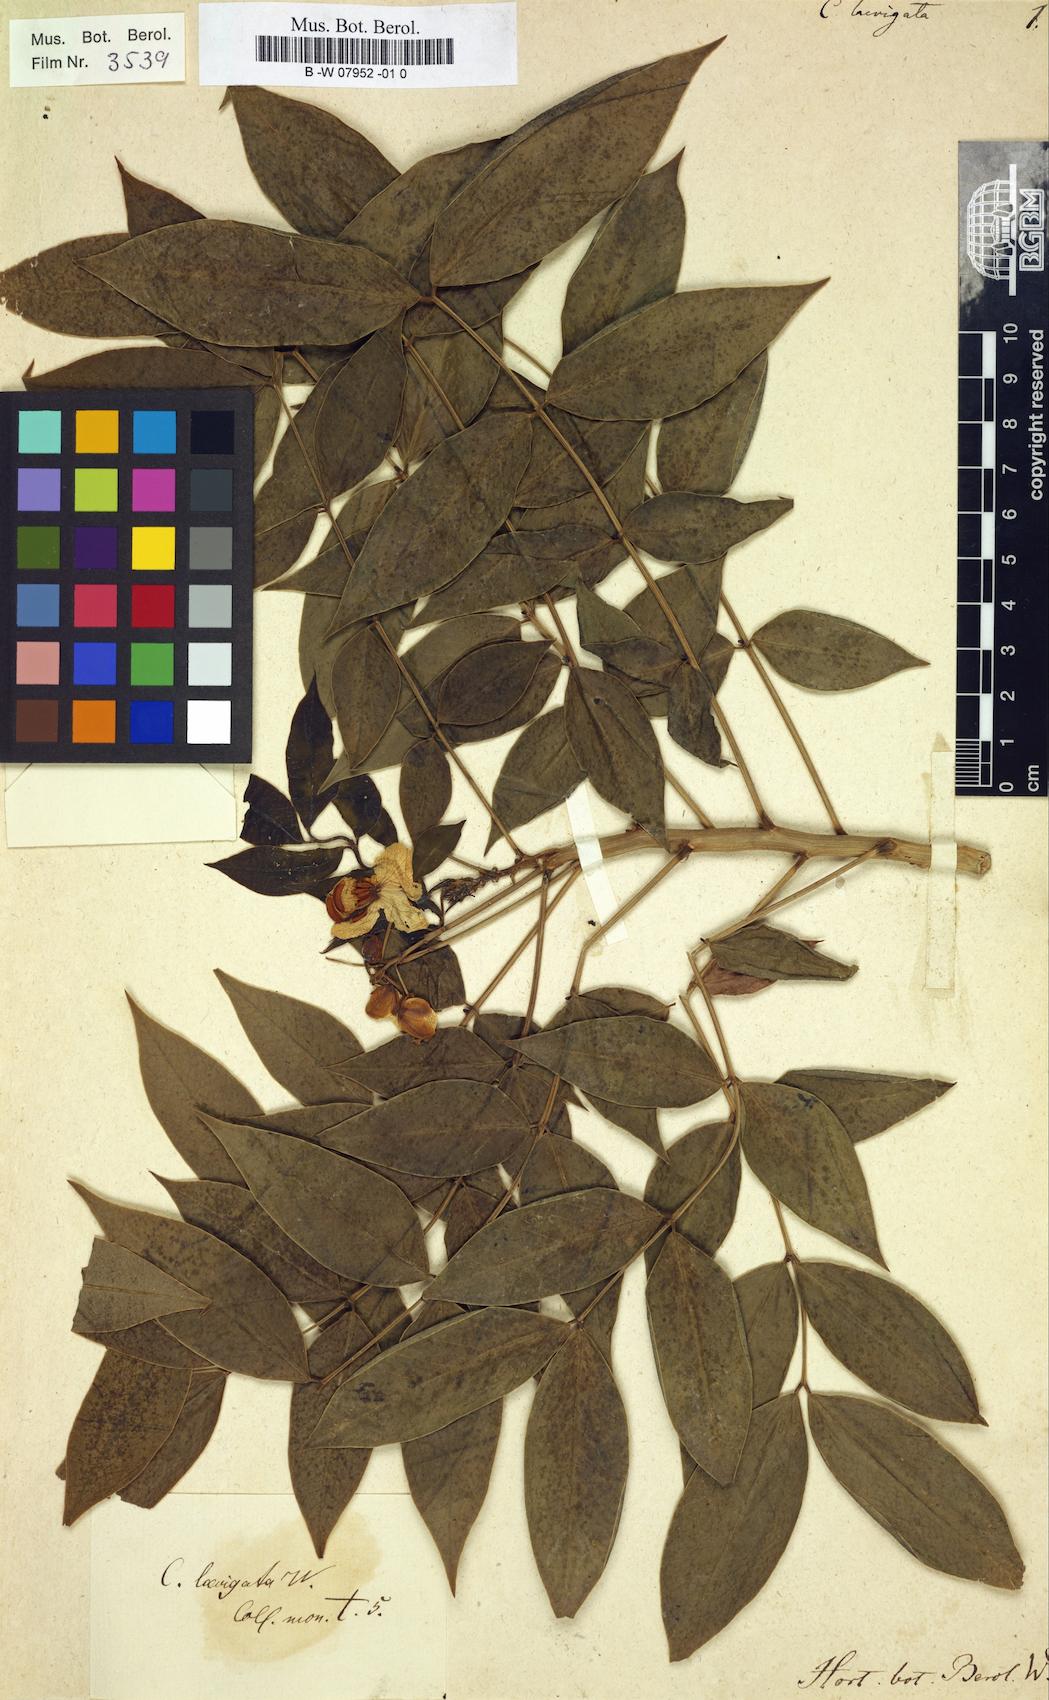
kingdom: Plantae
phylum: Tracheophyta
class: Magnoliopsida
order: Fabales
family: Fabaceae
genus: Senna
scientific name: Senna
